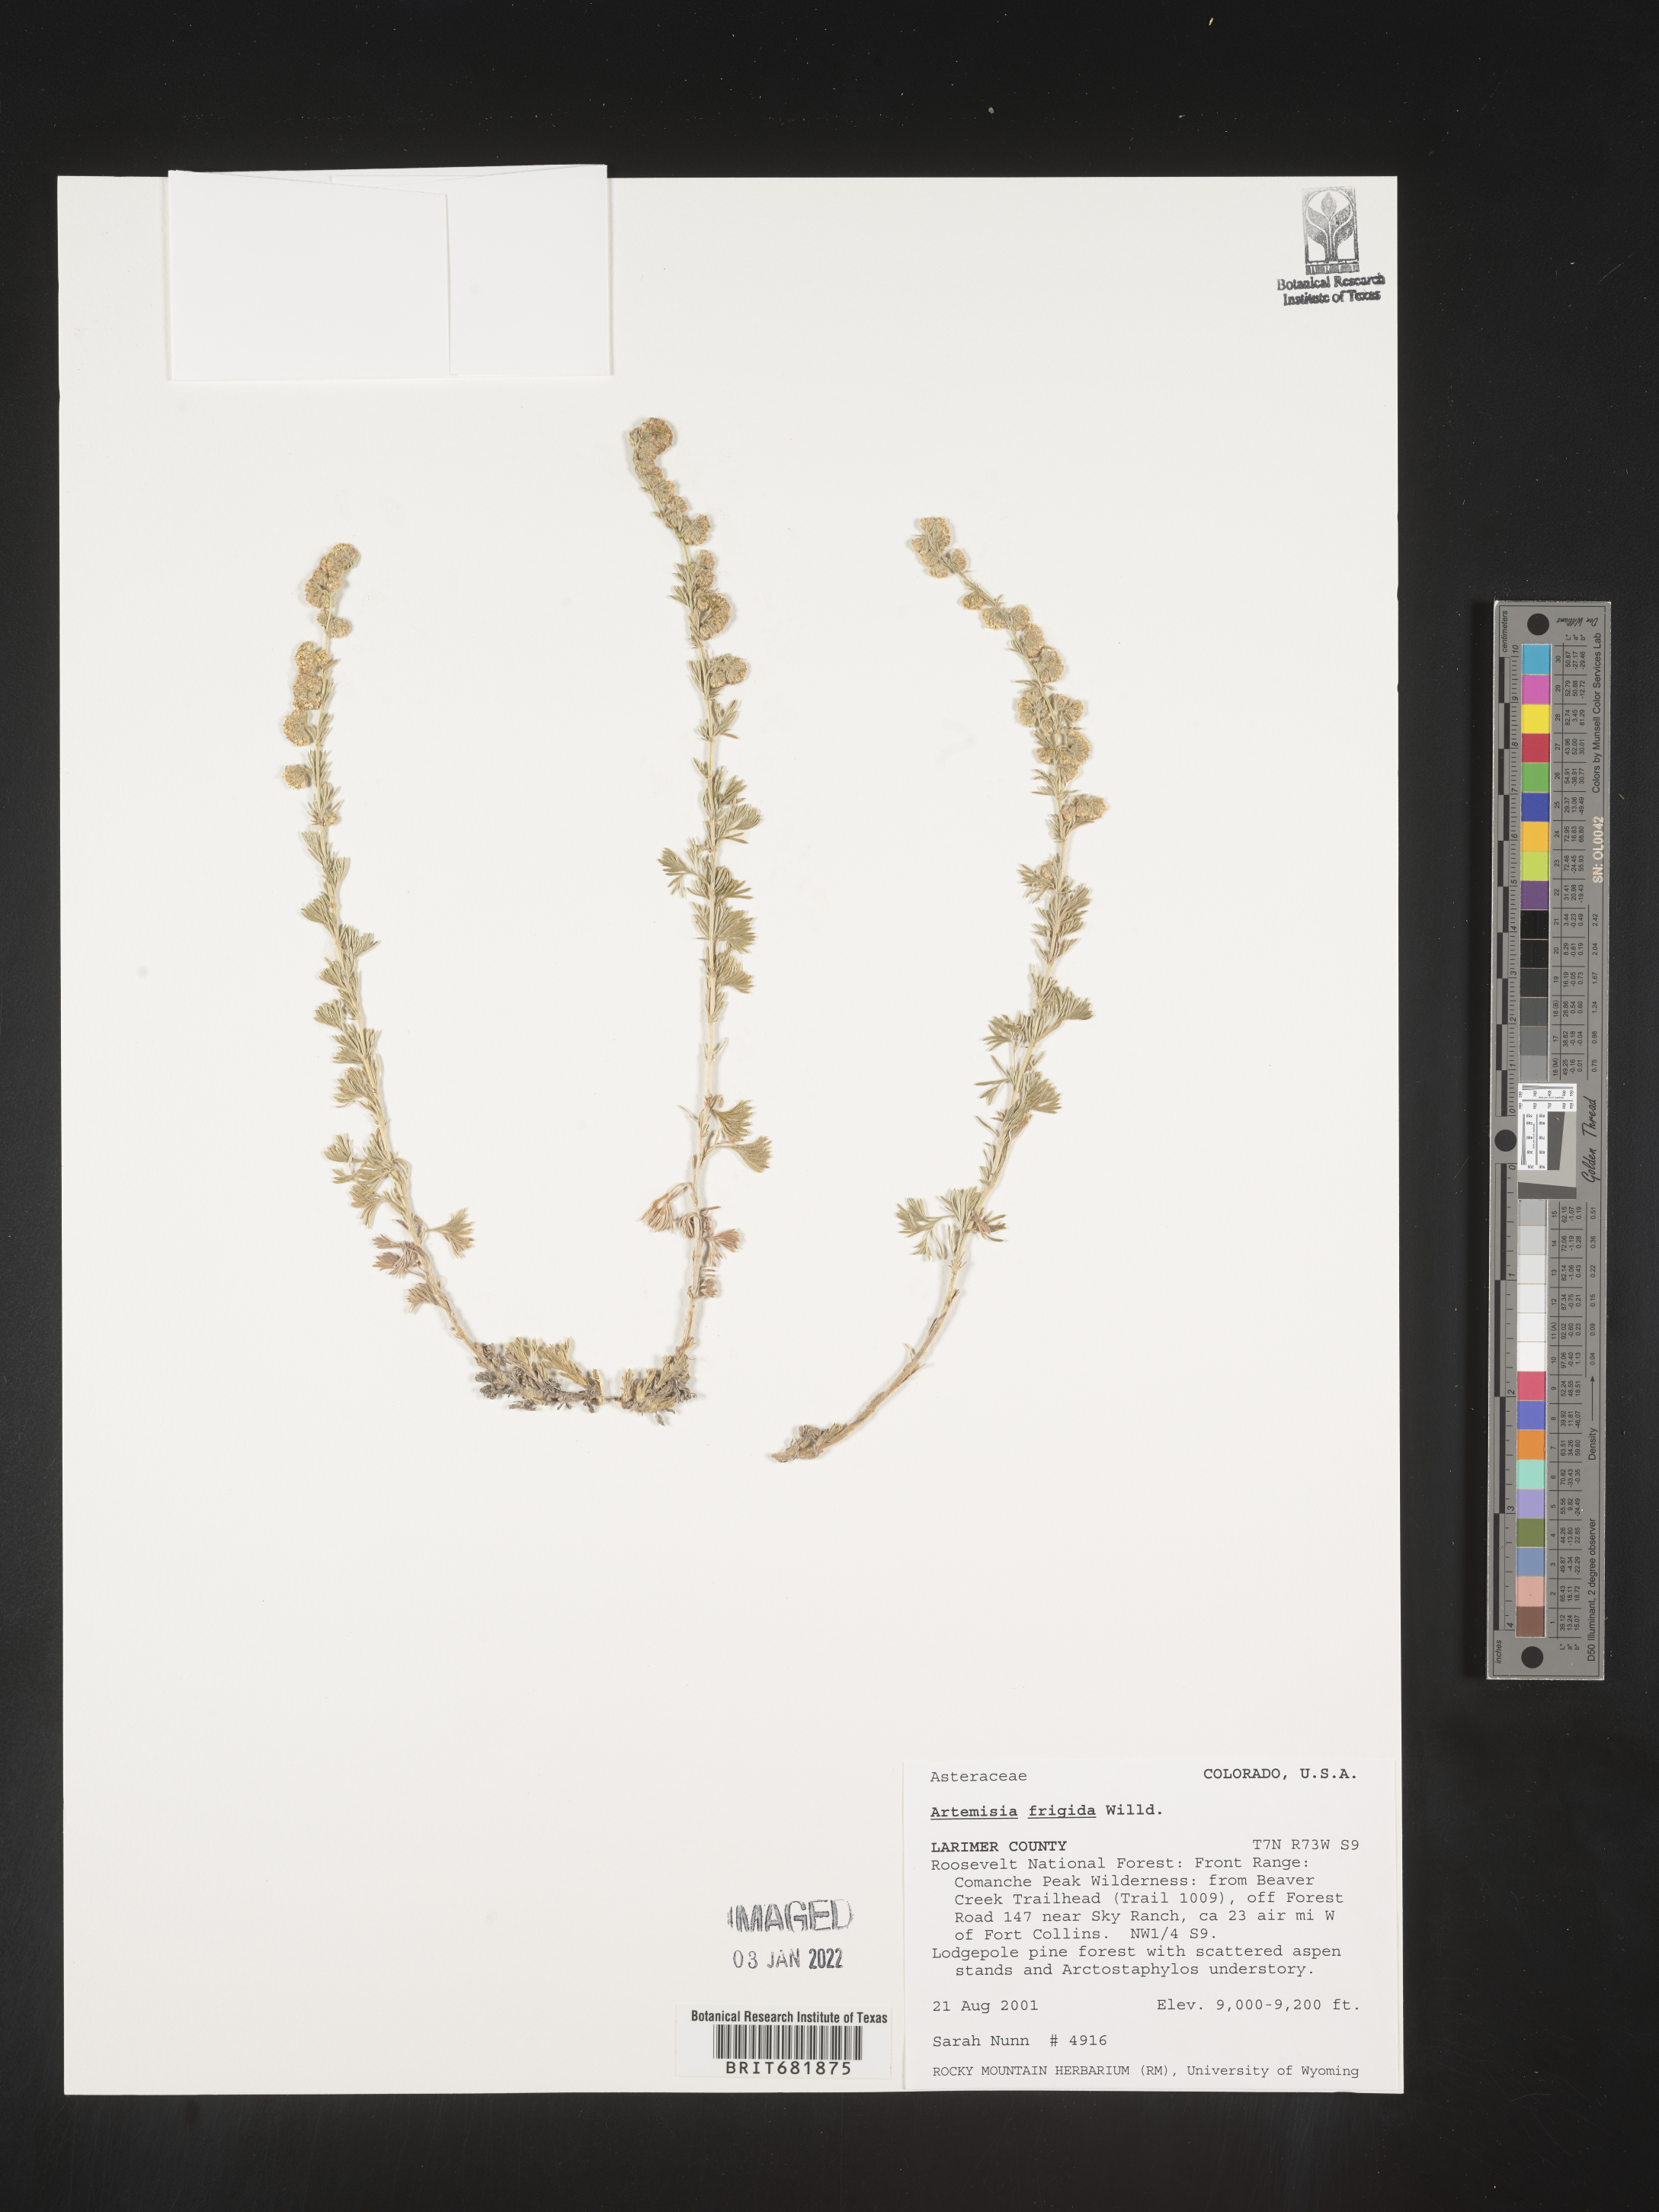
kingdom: Plantae
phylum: Tracheophyta
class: Magnoliopsida
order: Asterales
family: Asteraceae
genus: Artemisia
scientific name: Artemisia frigida
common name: Prairie sagewort
